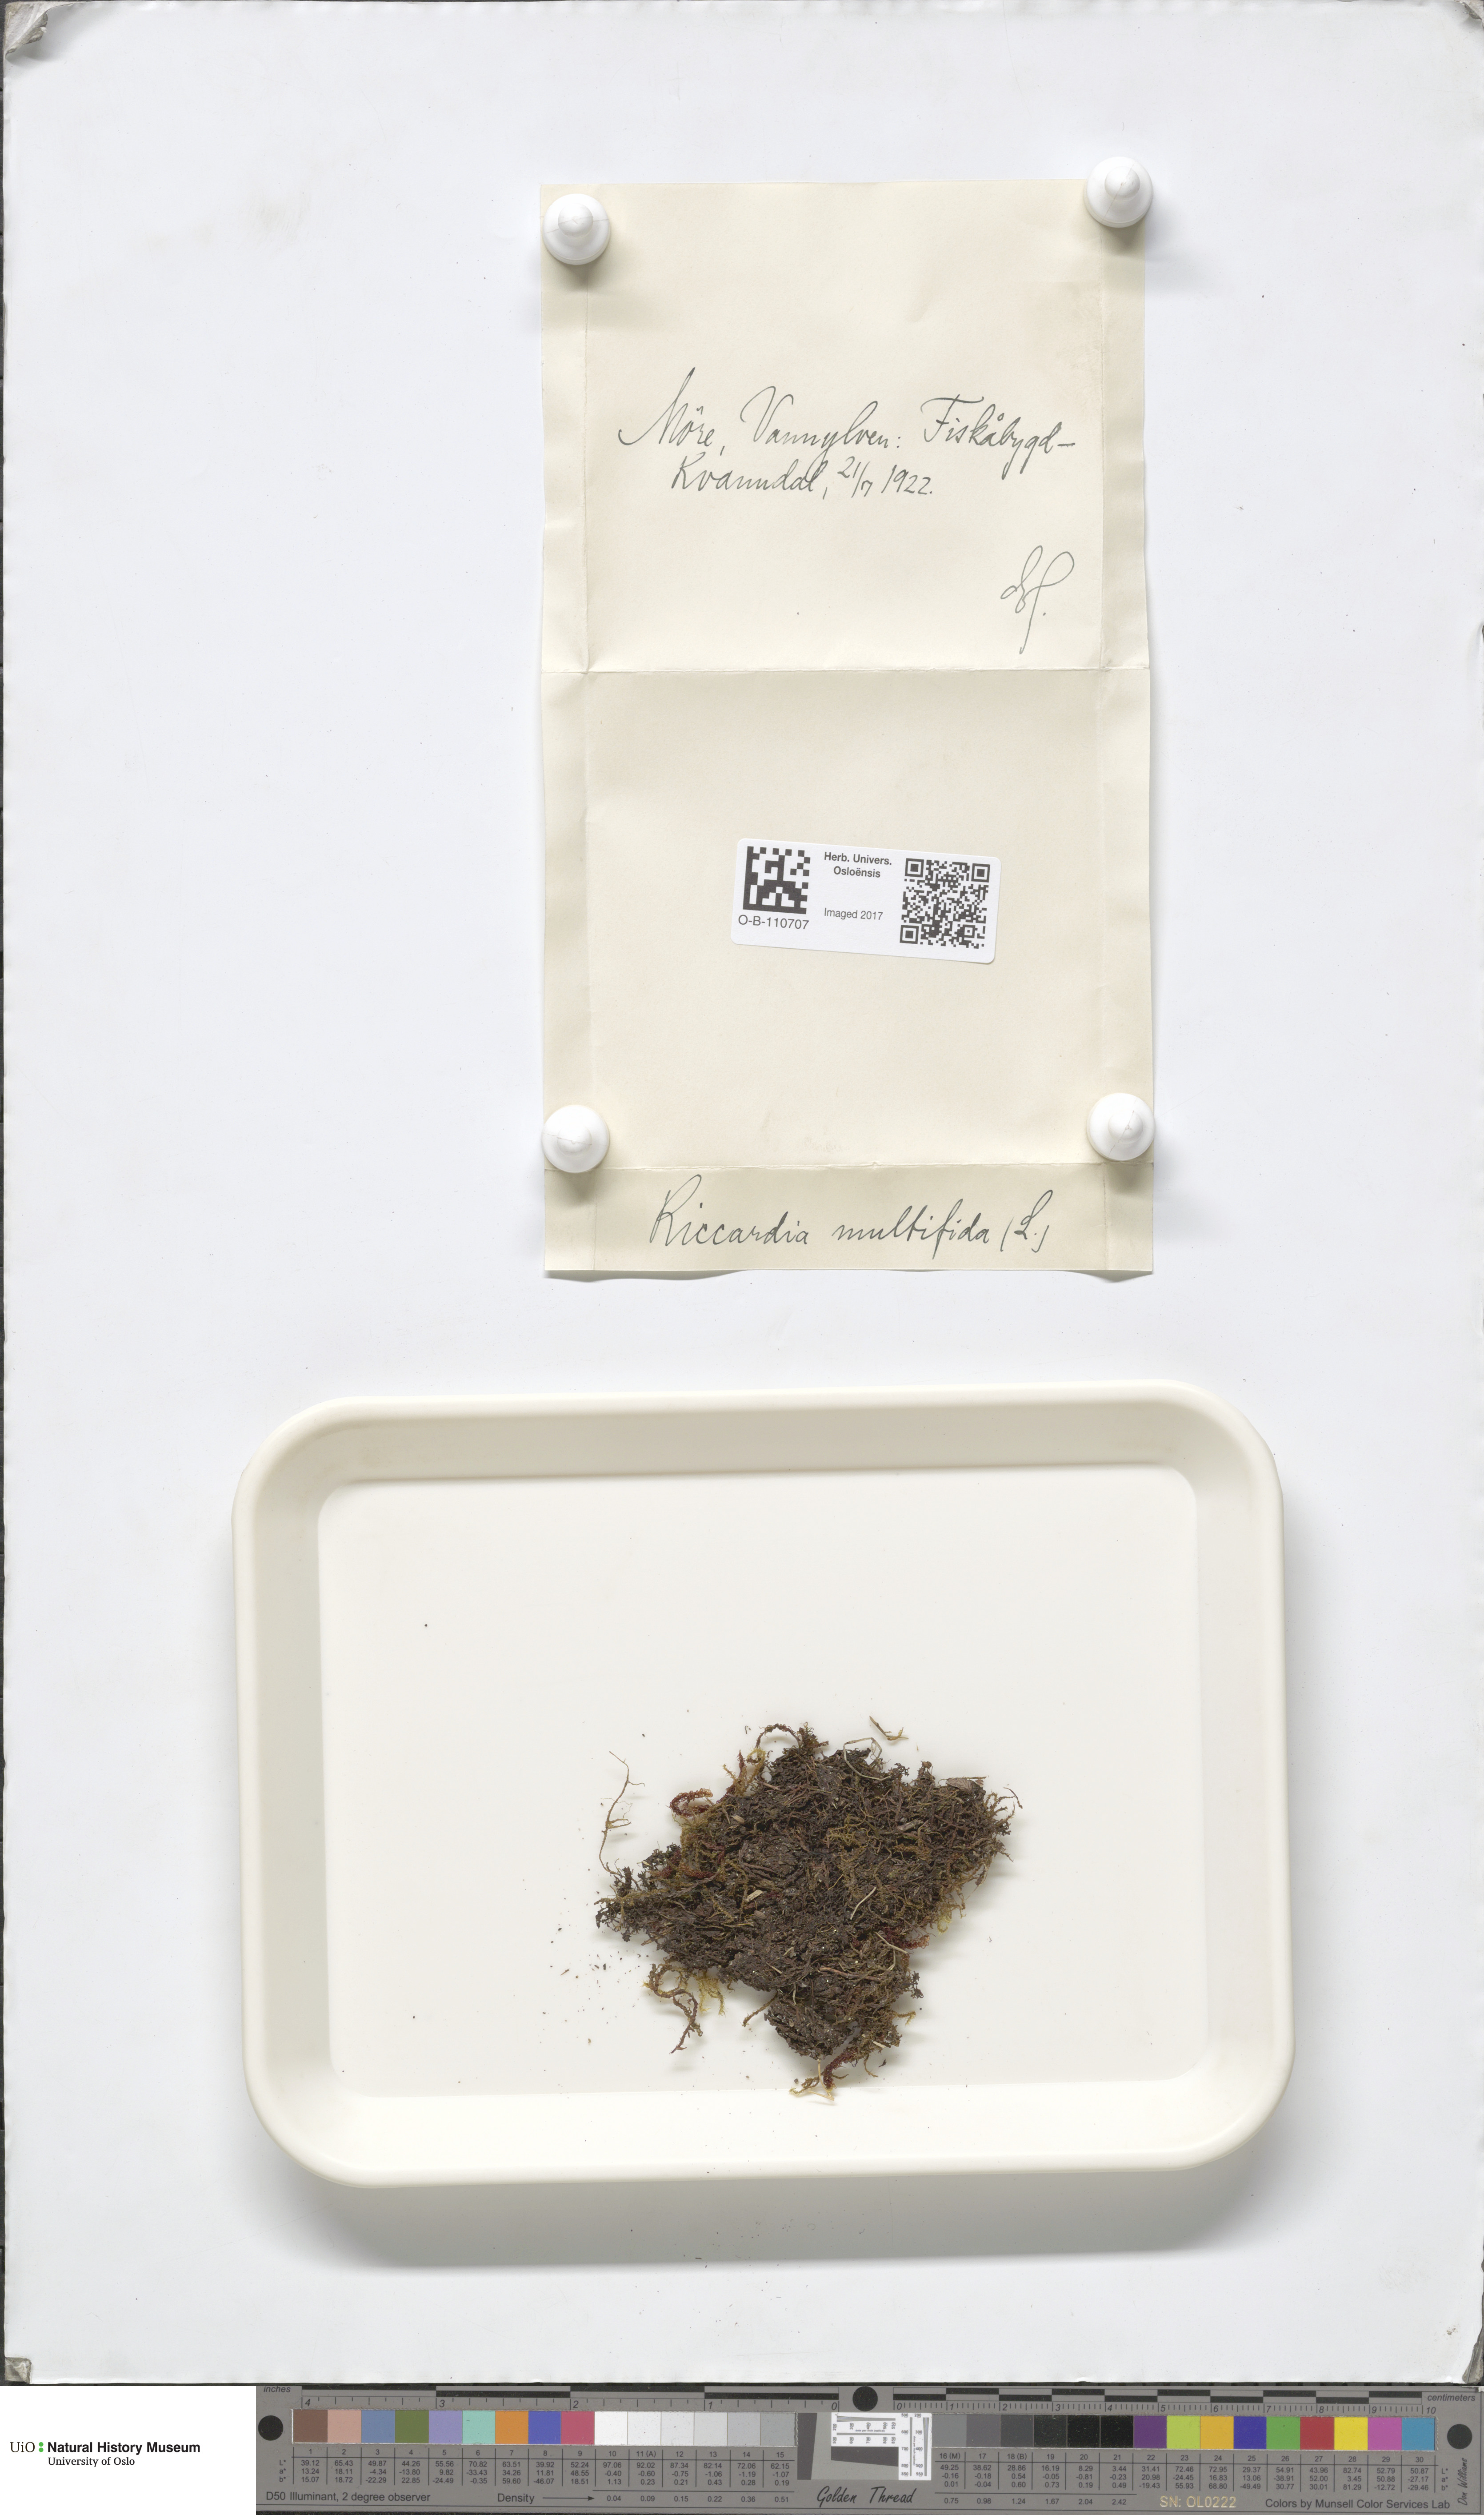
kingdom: Plantae
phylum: Marchantiophyta
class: Jungermanniopsida
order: Metzgeriales
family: Aneuraceae
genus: Riccardia
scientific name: Riccardia palmata
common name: Palmate germanderwort
